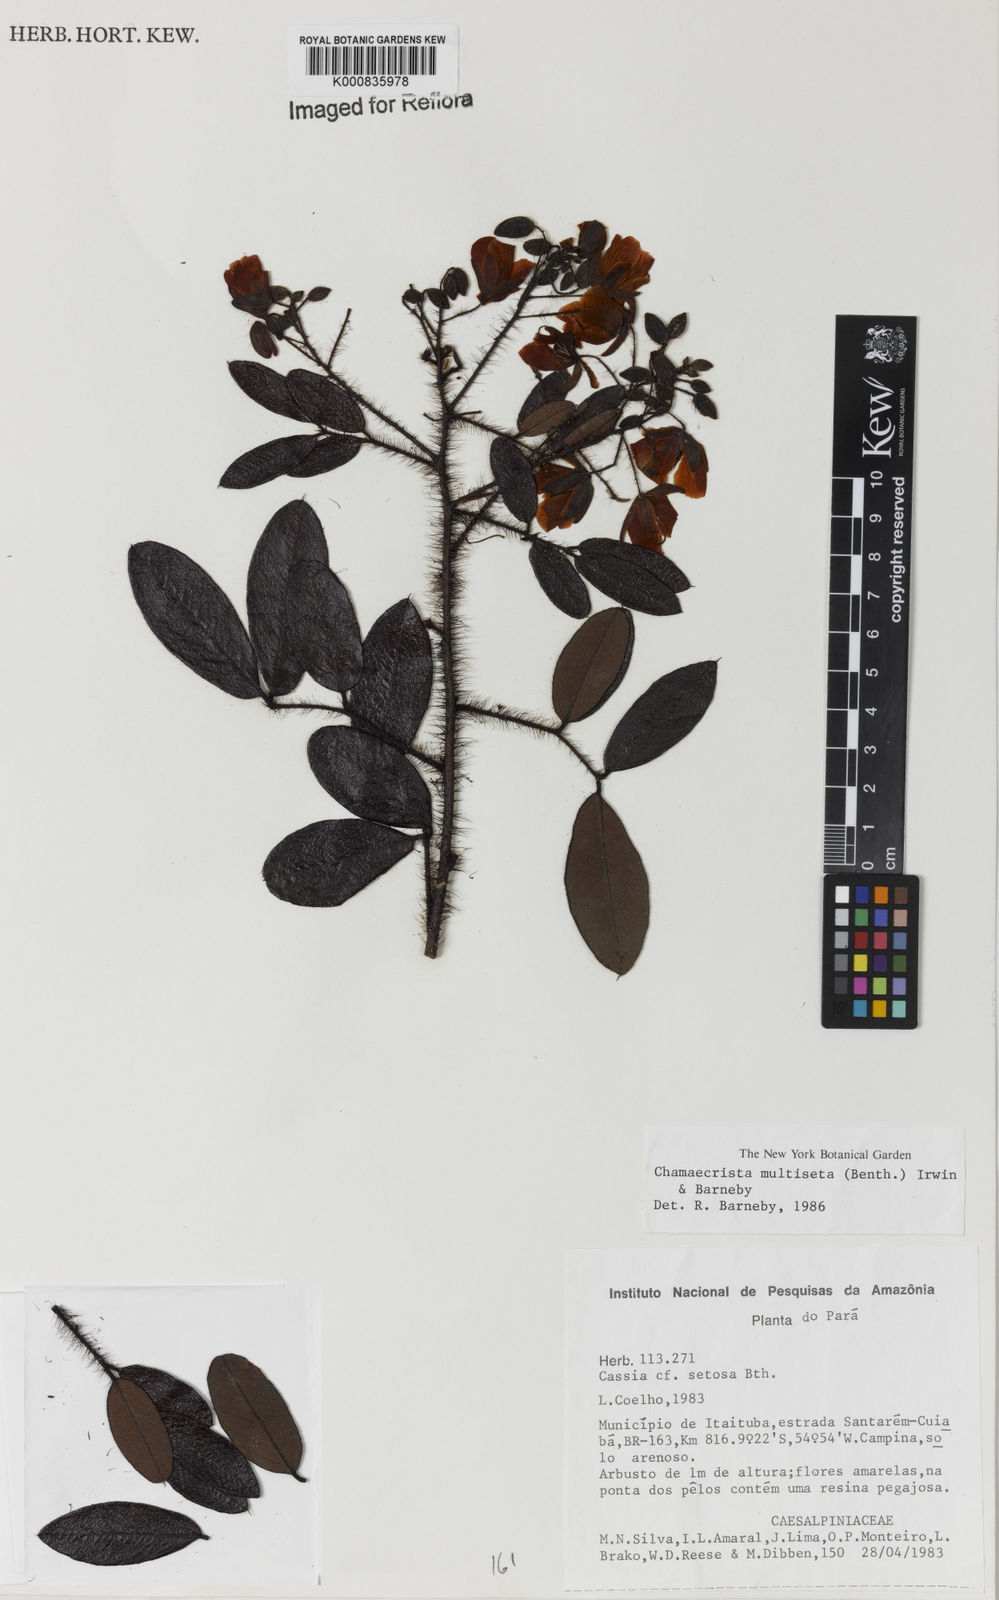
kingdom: Plantae
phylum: Tracheophyta
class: Magnoliopsida
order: Fabales
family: Fabaceae
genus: Chamaecrista
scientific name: Chamaecrista multiseta
